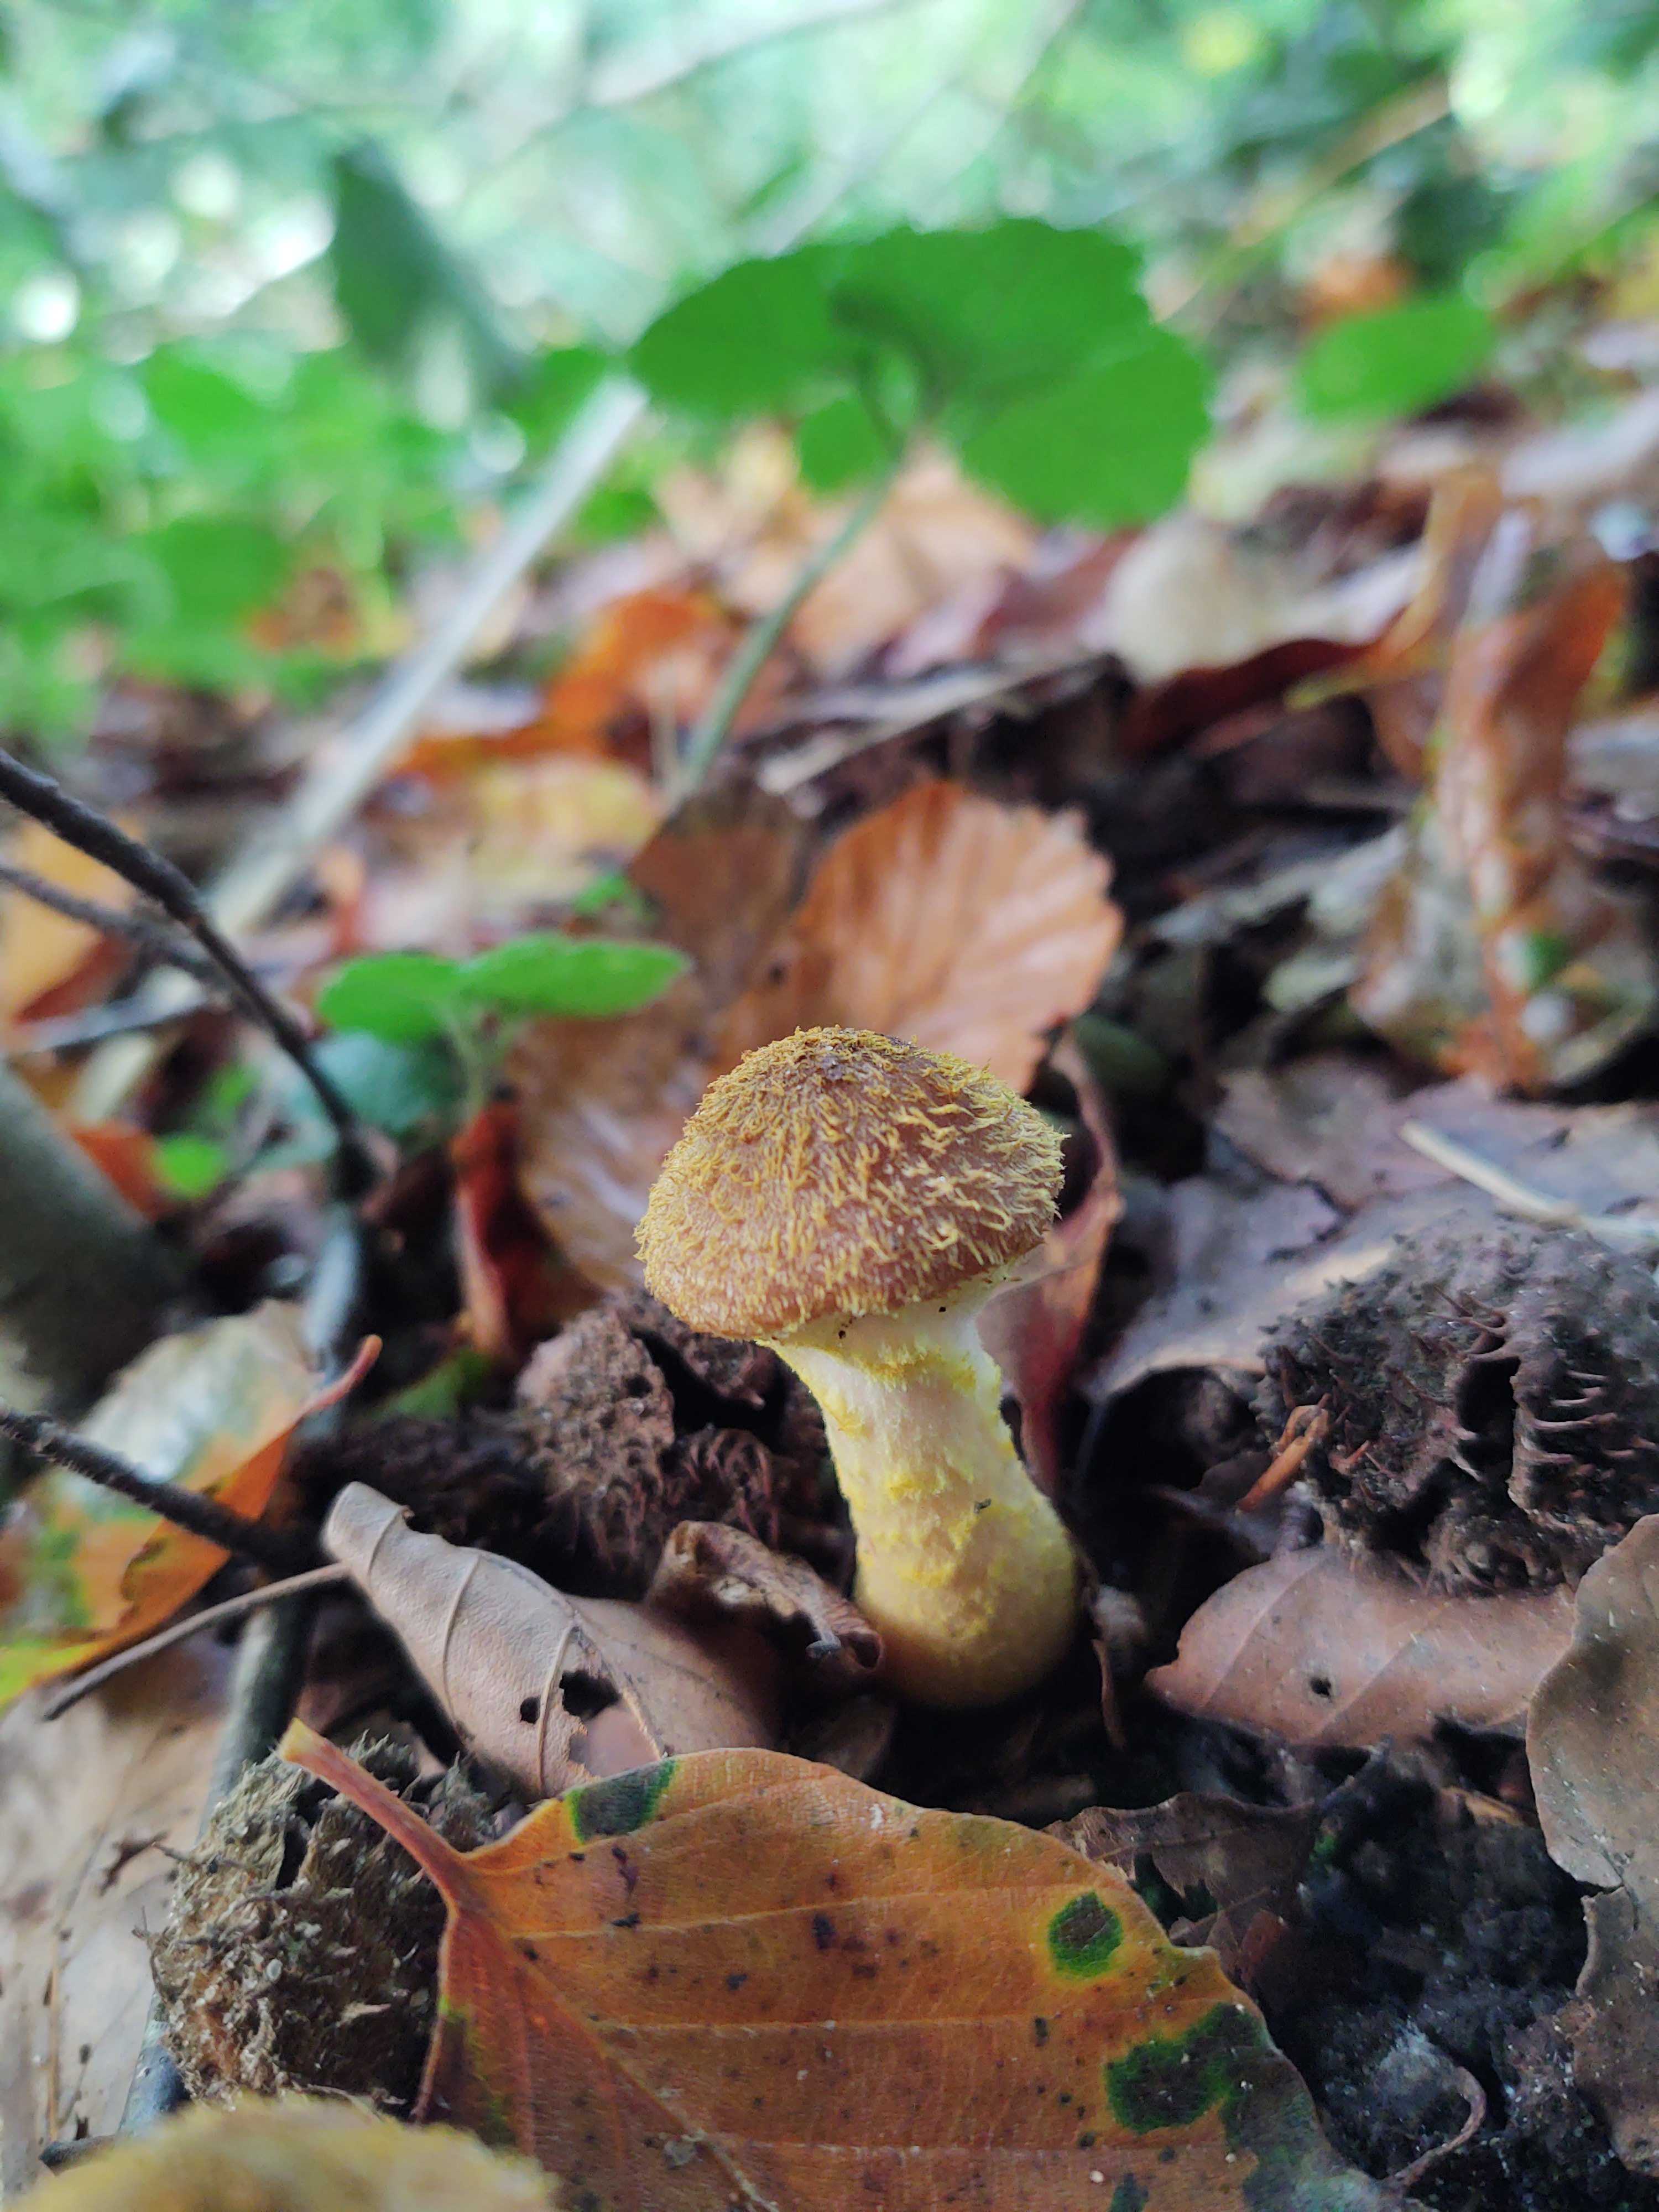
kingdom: Fungi
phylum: Basidiomycota
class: Agaricomycetes
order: Agaricales
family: Physalacriaceae
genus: Armillaria
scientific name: Armillaria lutea
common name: køllestokket honningsvamp
